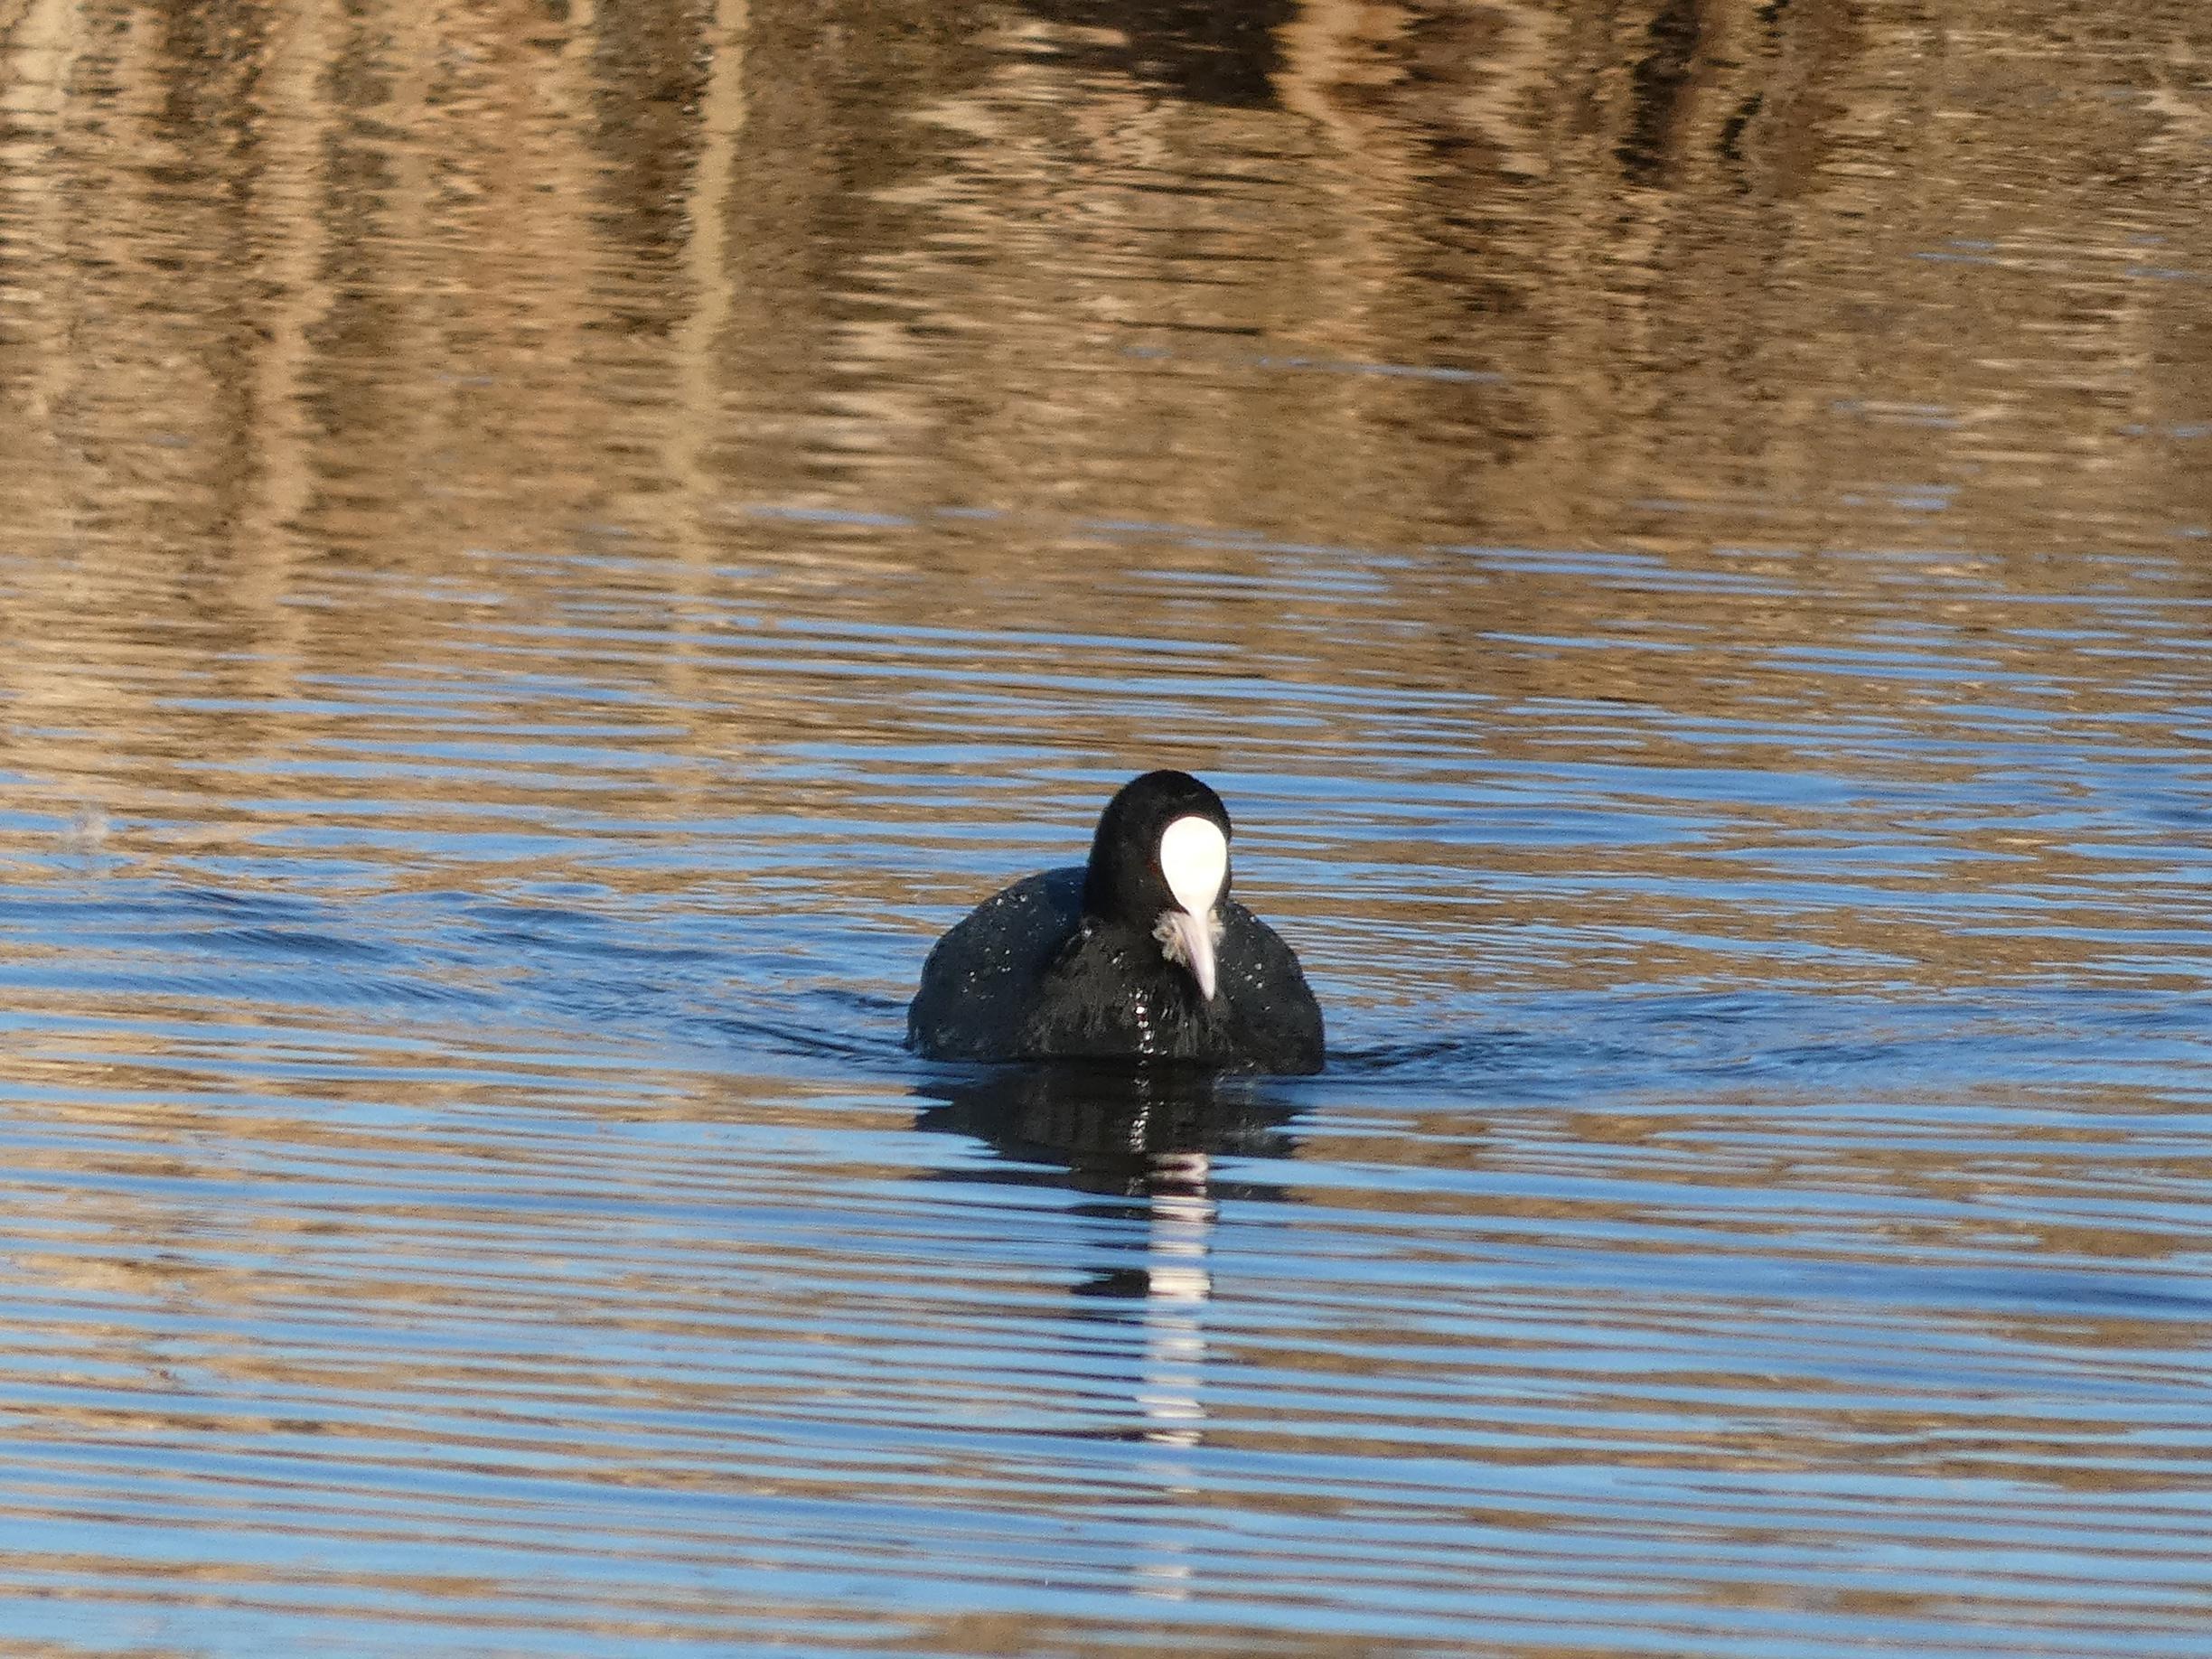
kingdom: Animalia
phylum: Chordata
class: Aves
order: Gruiformes
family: Rallidae
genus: Fulica
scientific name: Fulica atra
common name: Blishøne
